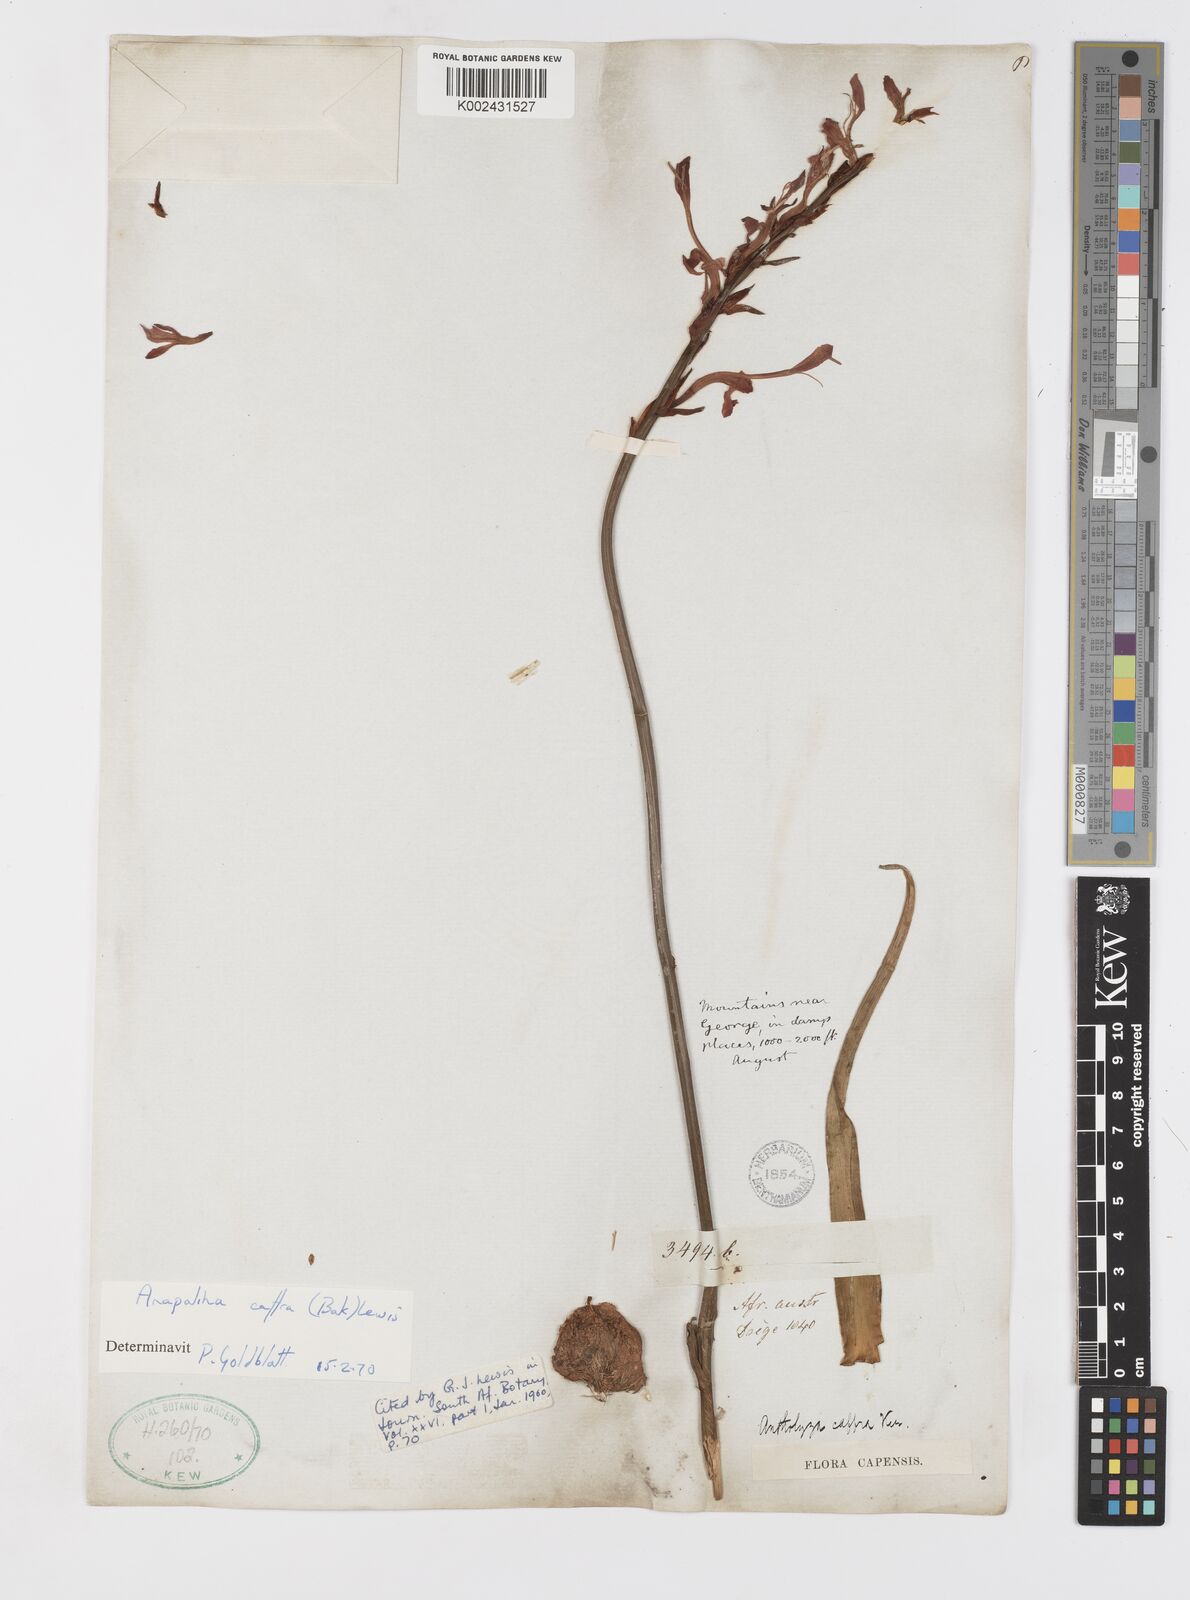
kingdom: Plantae
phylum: Tracheophyta
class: Liliopsida
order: Asparagales
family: Iridaceae
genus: Tritoniopsis
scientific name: Tritoniopsis caffra
